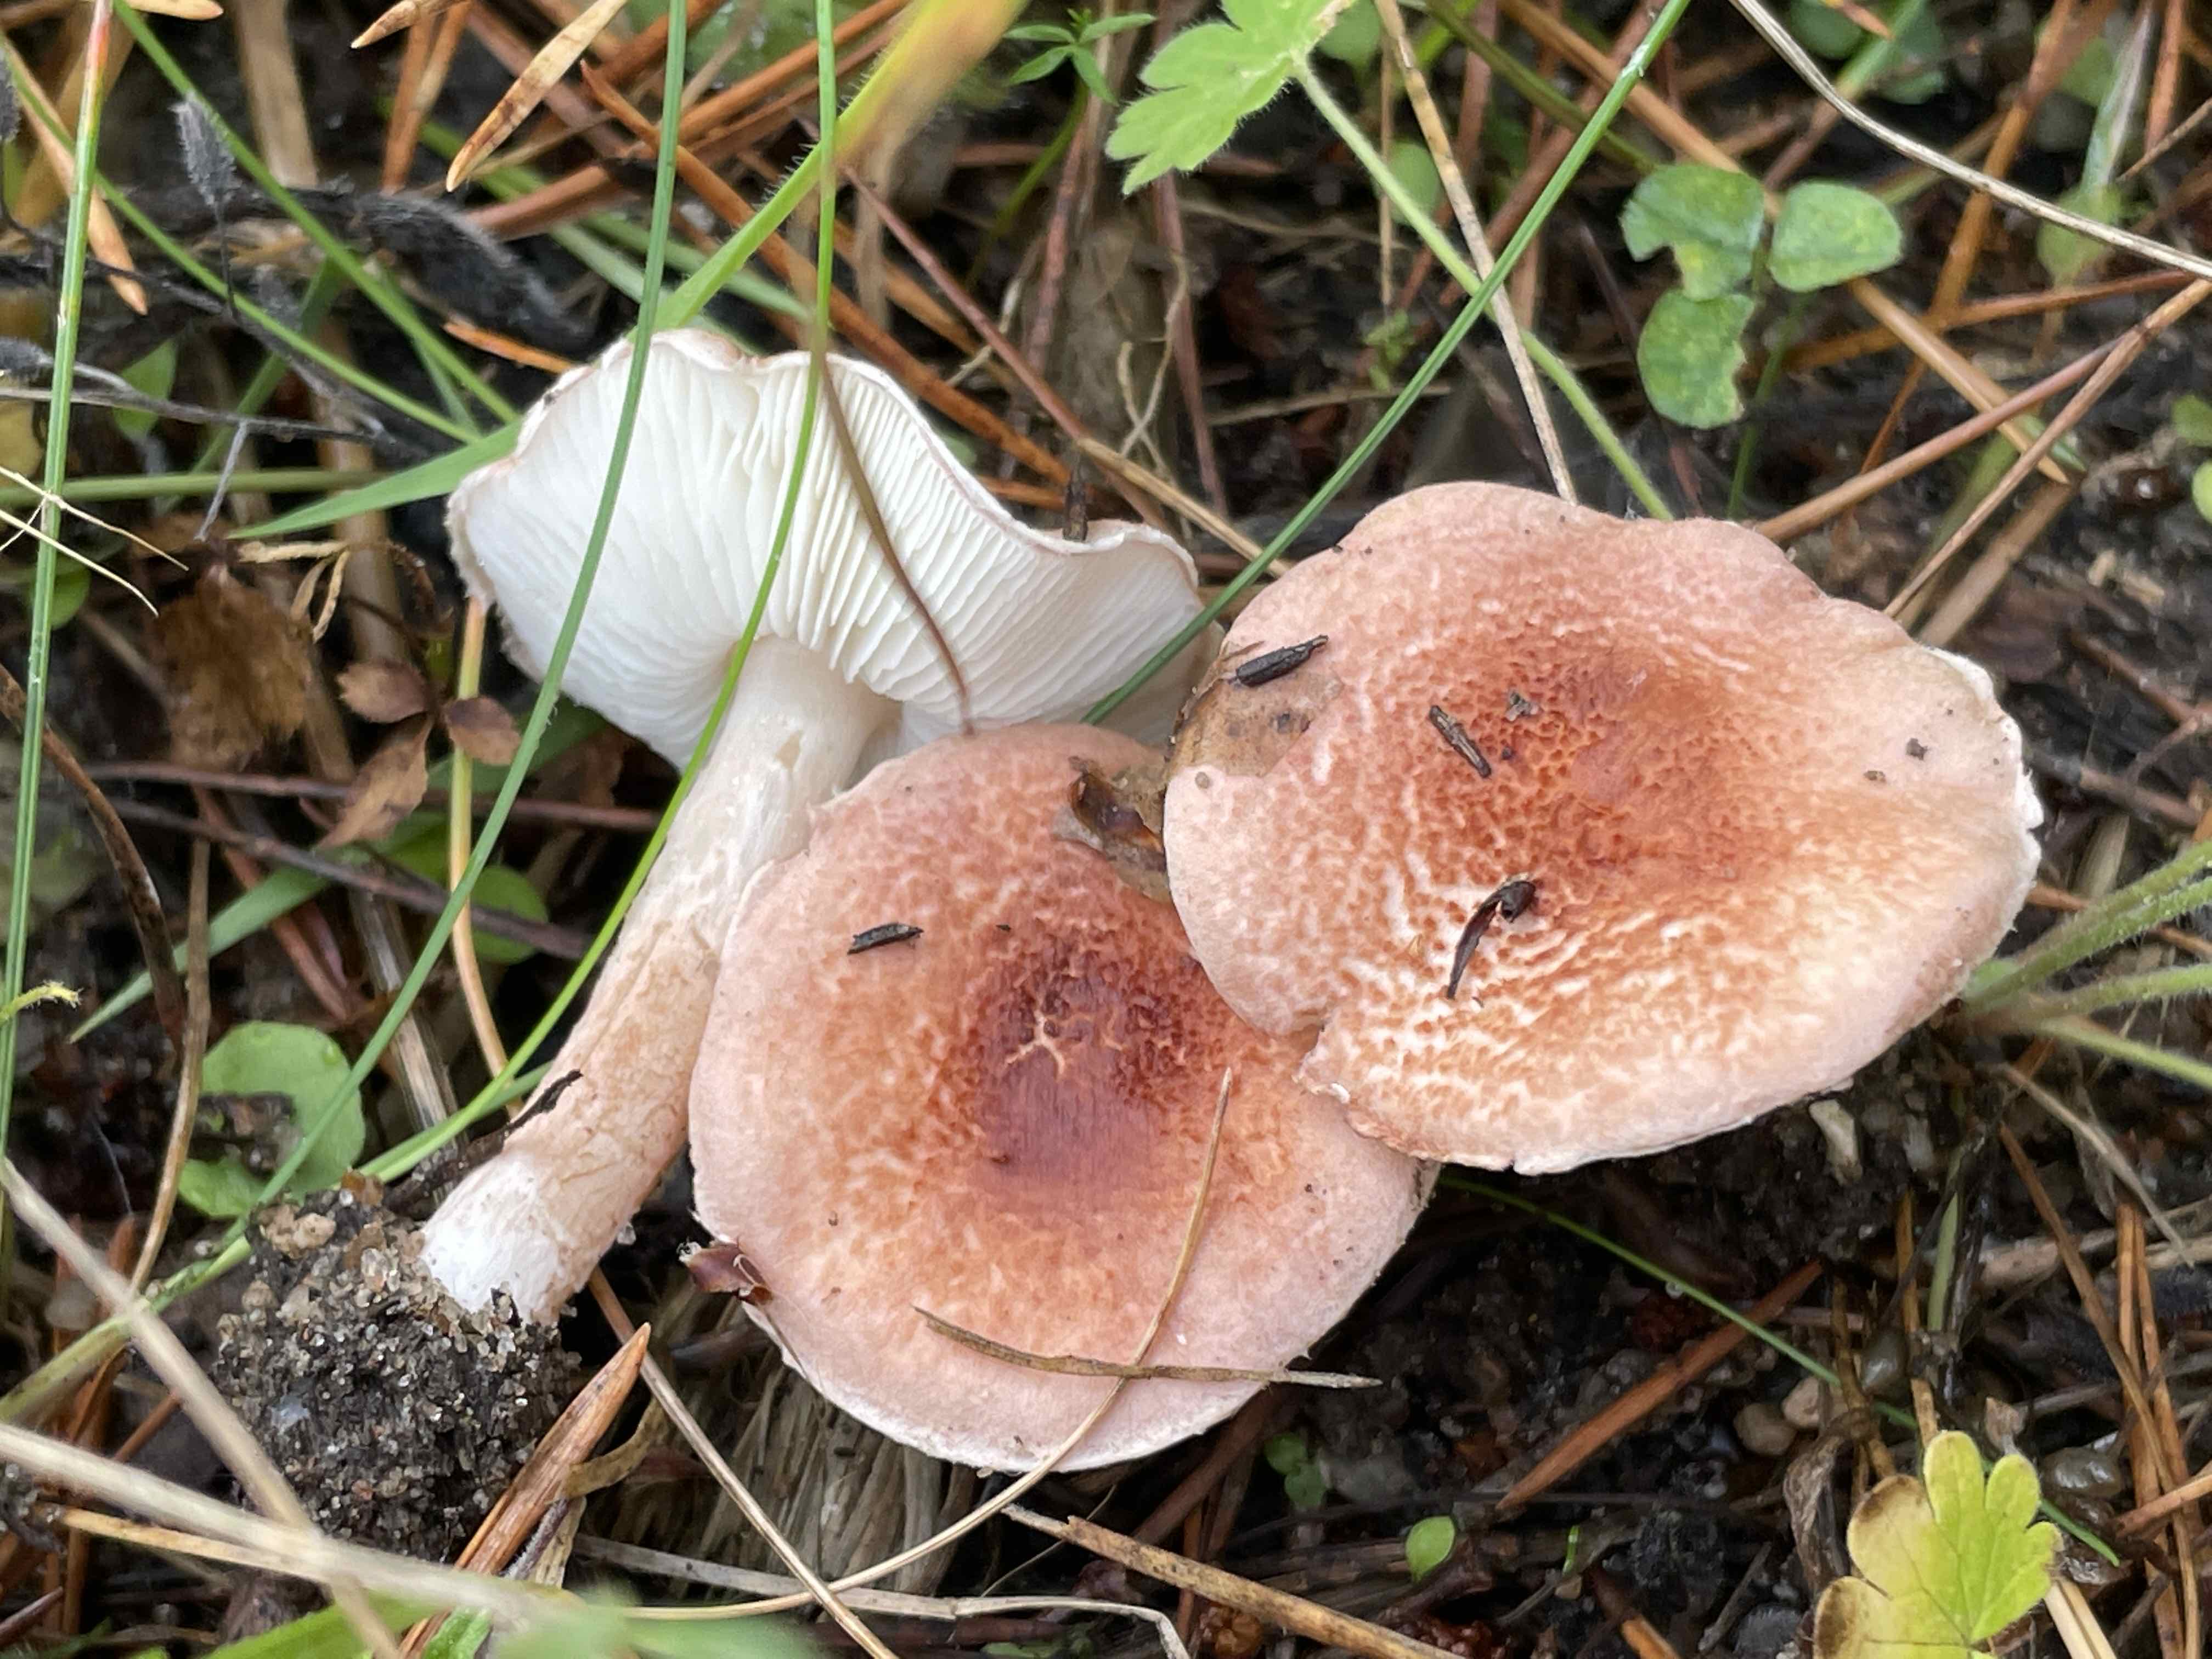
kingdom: Fungi
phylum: Basidiomycota
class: Agaricomycetes
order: Agaricales
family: Agaricaceae
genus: Lepiota
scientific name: Lepiota subincarnata
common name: kødfarvet parasolhat
